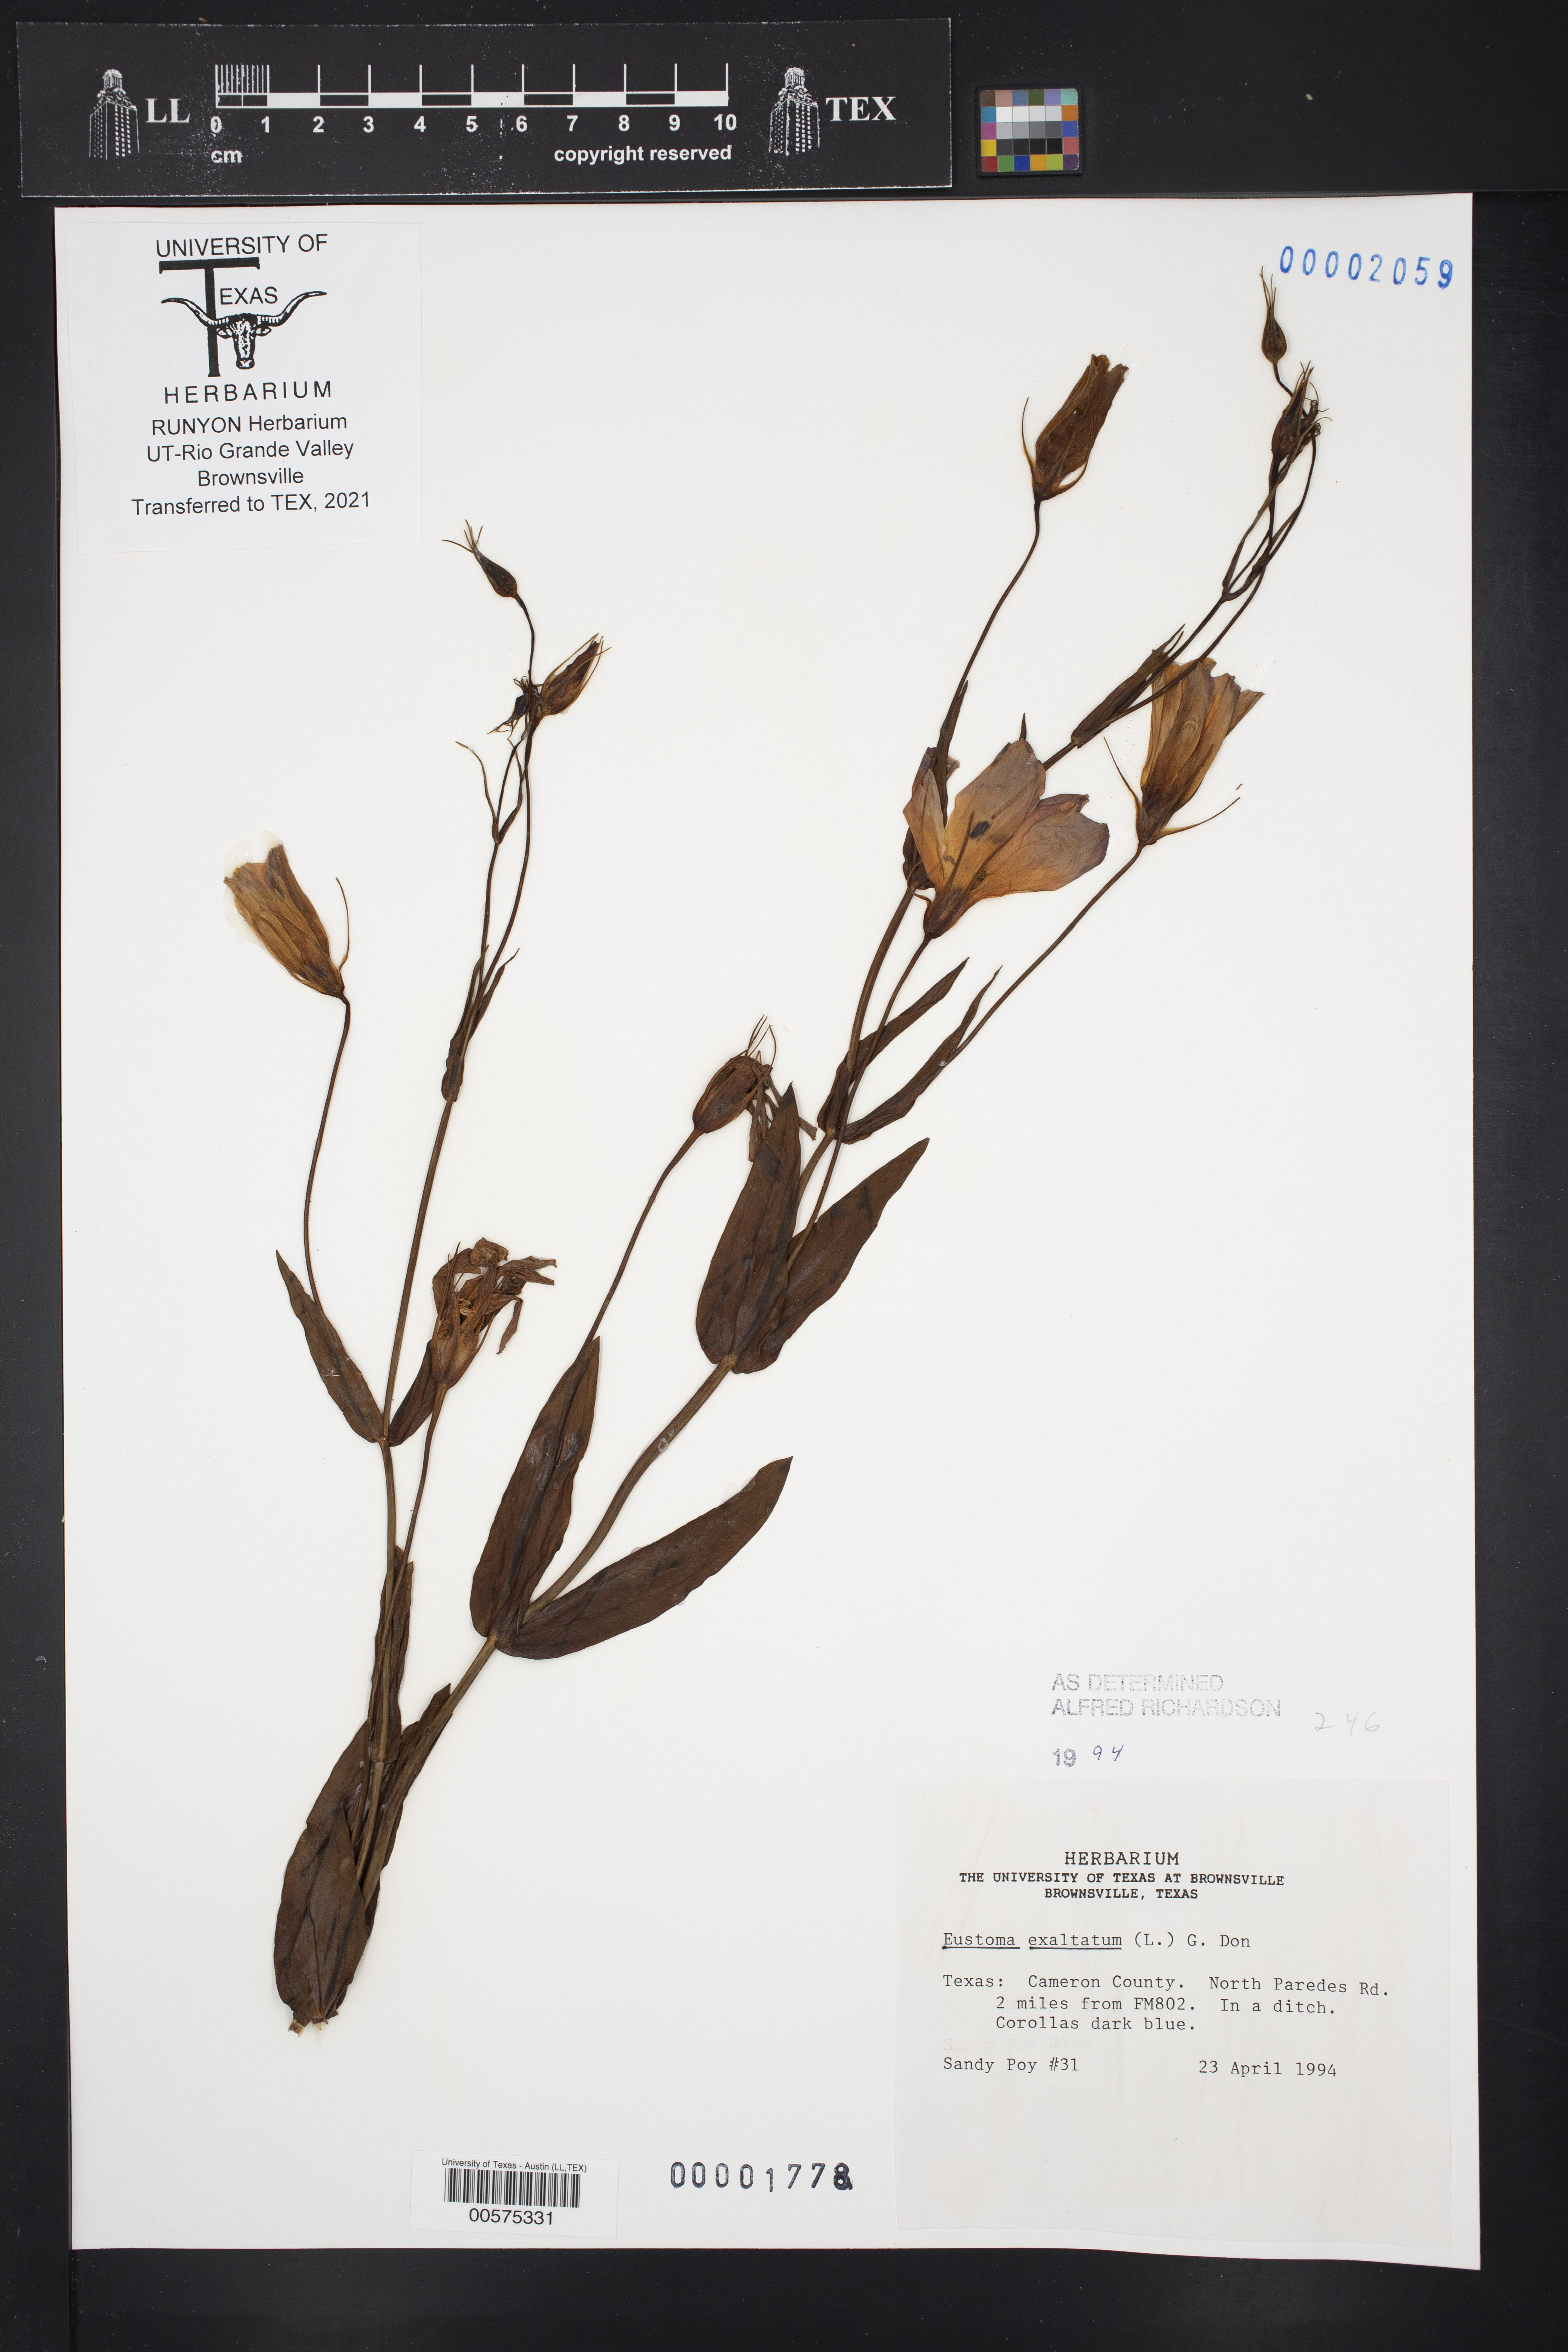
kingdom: Plantae
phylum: Tracheophyta
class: Magnoliopsida
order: Gentianales
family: Gentianaceae
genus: Eustoma
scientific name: Eustoma exaltatum
